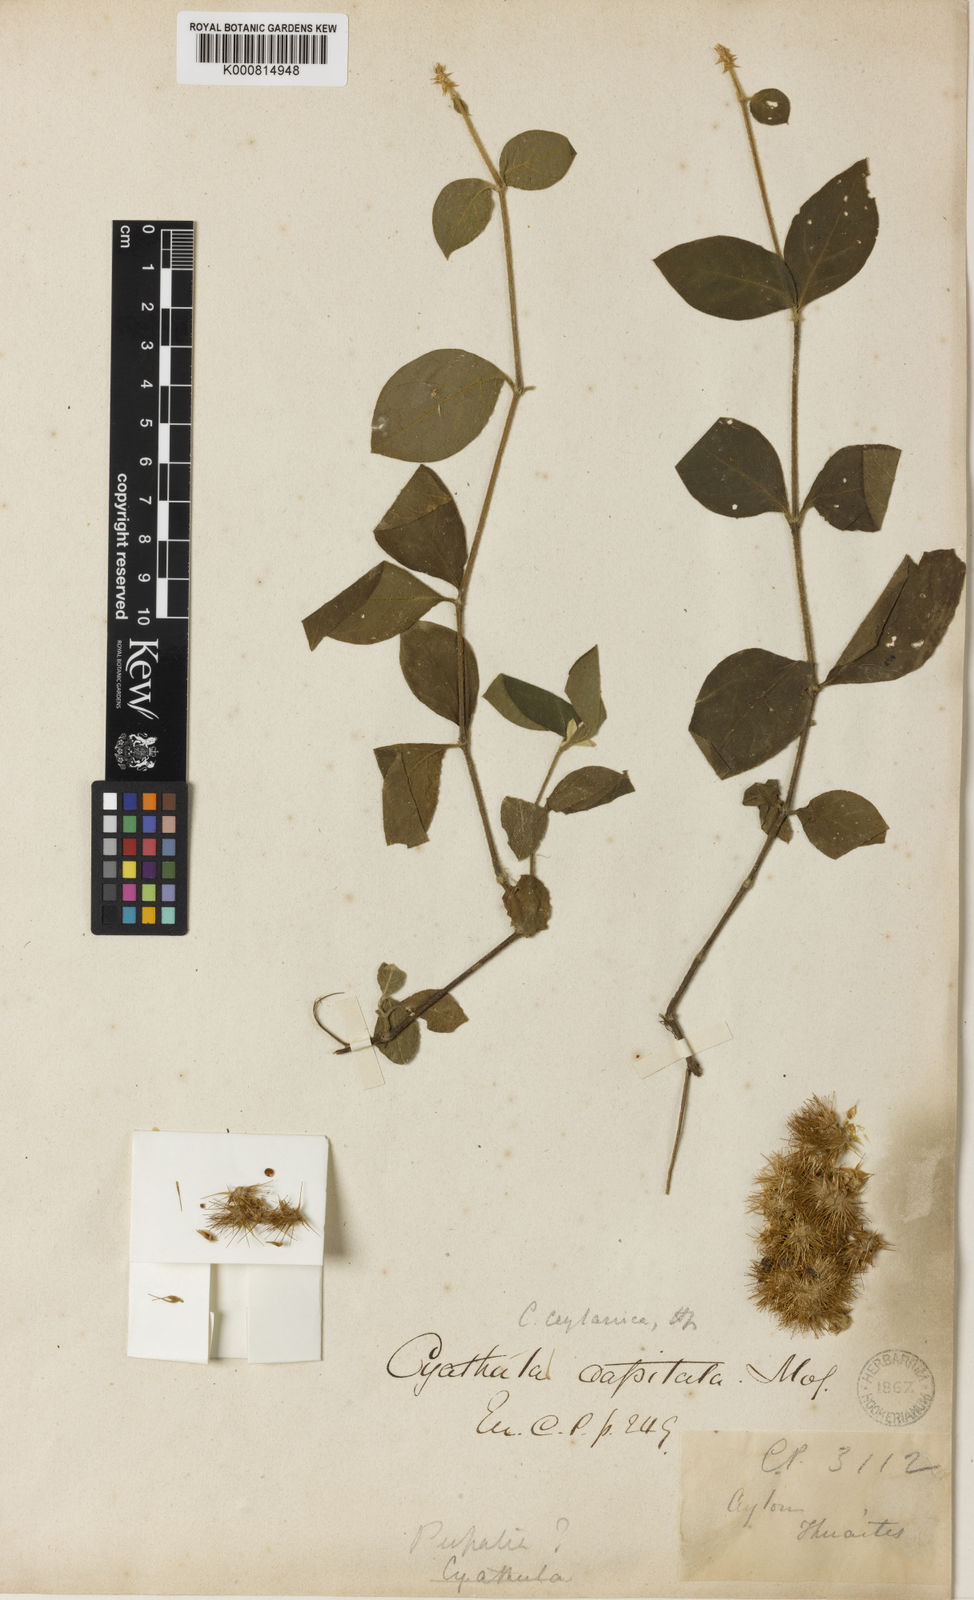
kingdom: Plantae
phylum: Tracheophyta
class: Magnoliopsida
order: Caryophyllales
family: Amaranthaceae
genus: Cyathula
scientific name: Cyathula ceylanica
